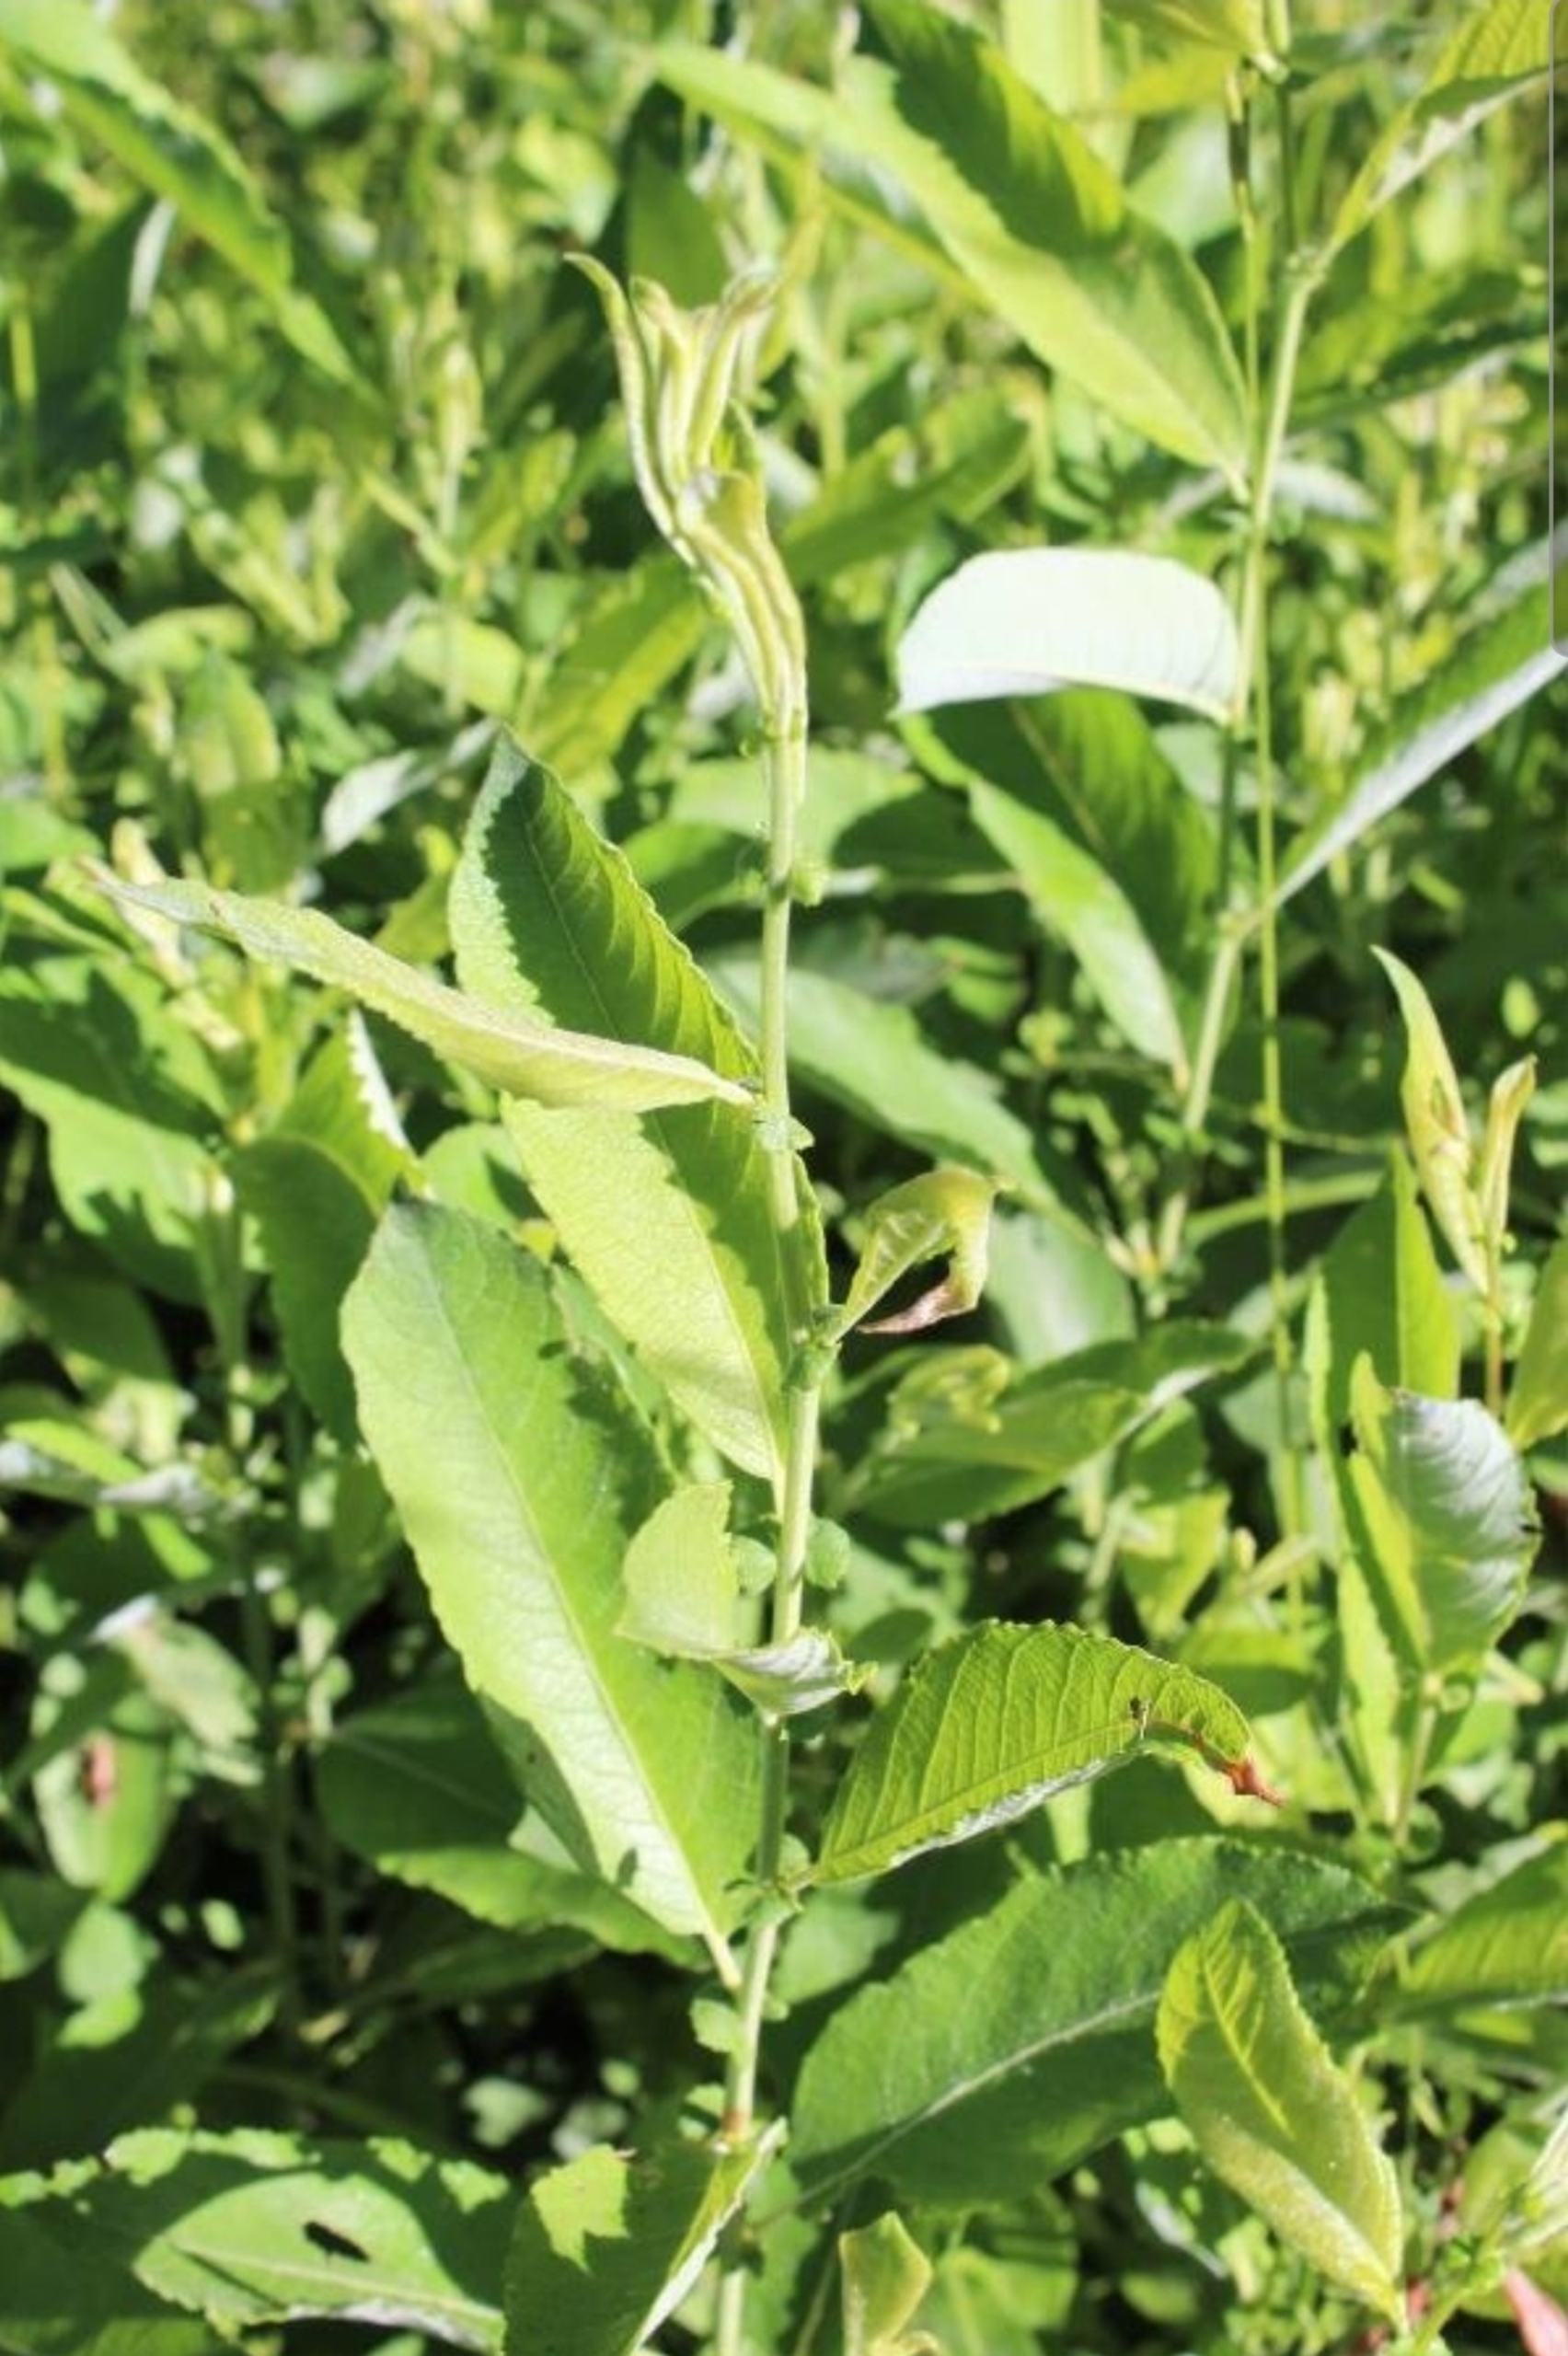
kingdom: Plantae
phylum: Tracheophyta
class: Magnoliopsida
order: Malpighiales
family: Salicaceae
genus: Salix
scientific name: Salix cinerea
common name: Grå-pil
